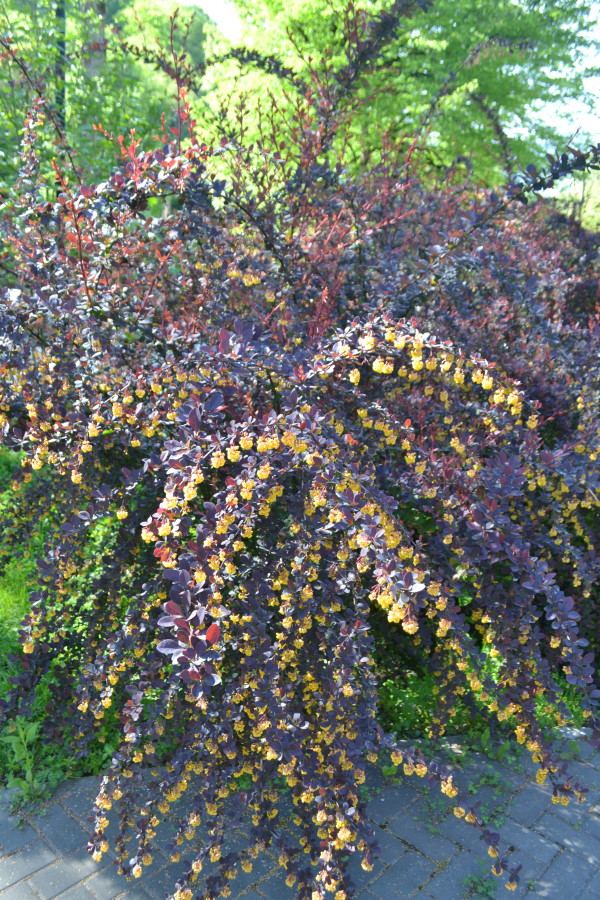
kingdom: Plantae
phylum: Tracheophyta
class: Magnoliopsida
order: Ranunculales
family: Berberidaceae
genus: Berberis
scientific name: Berberis
